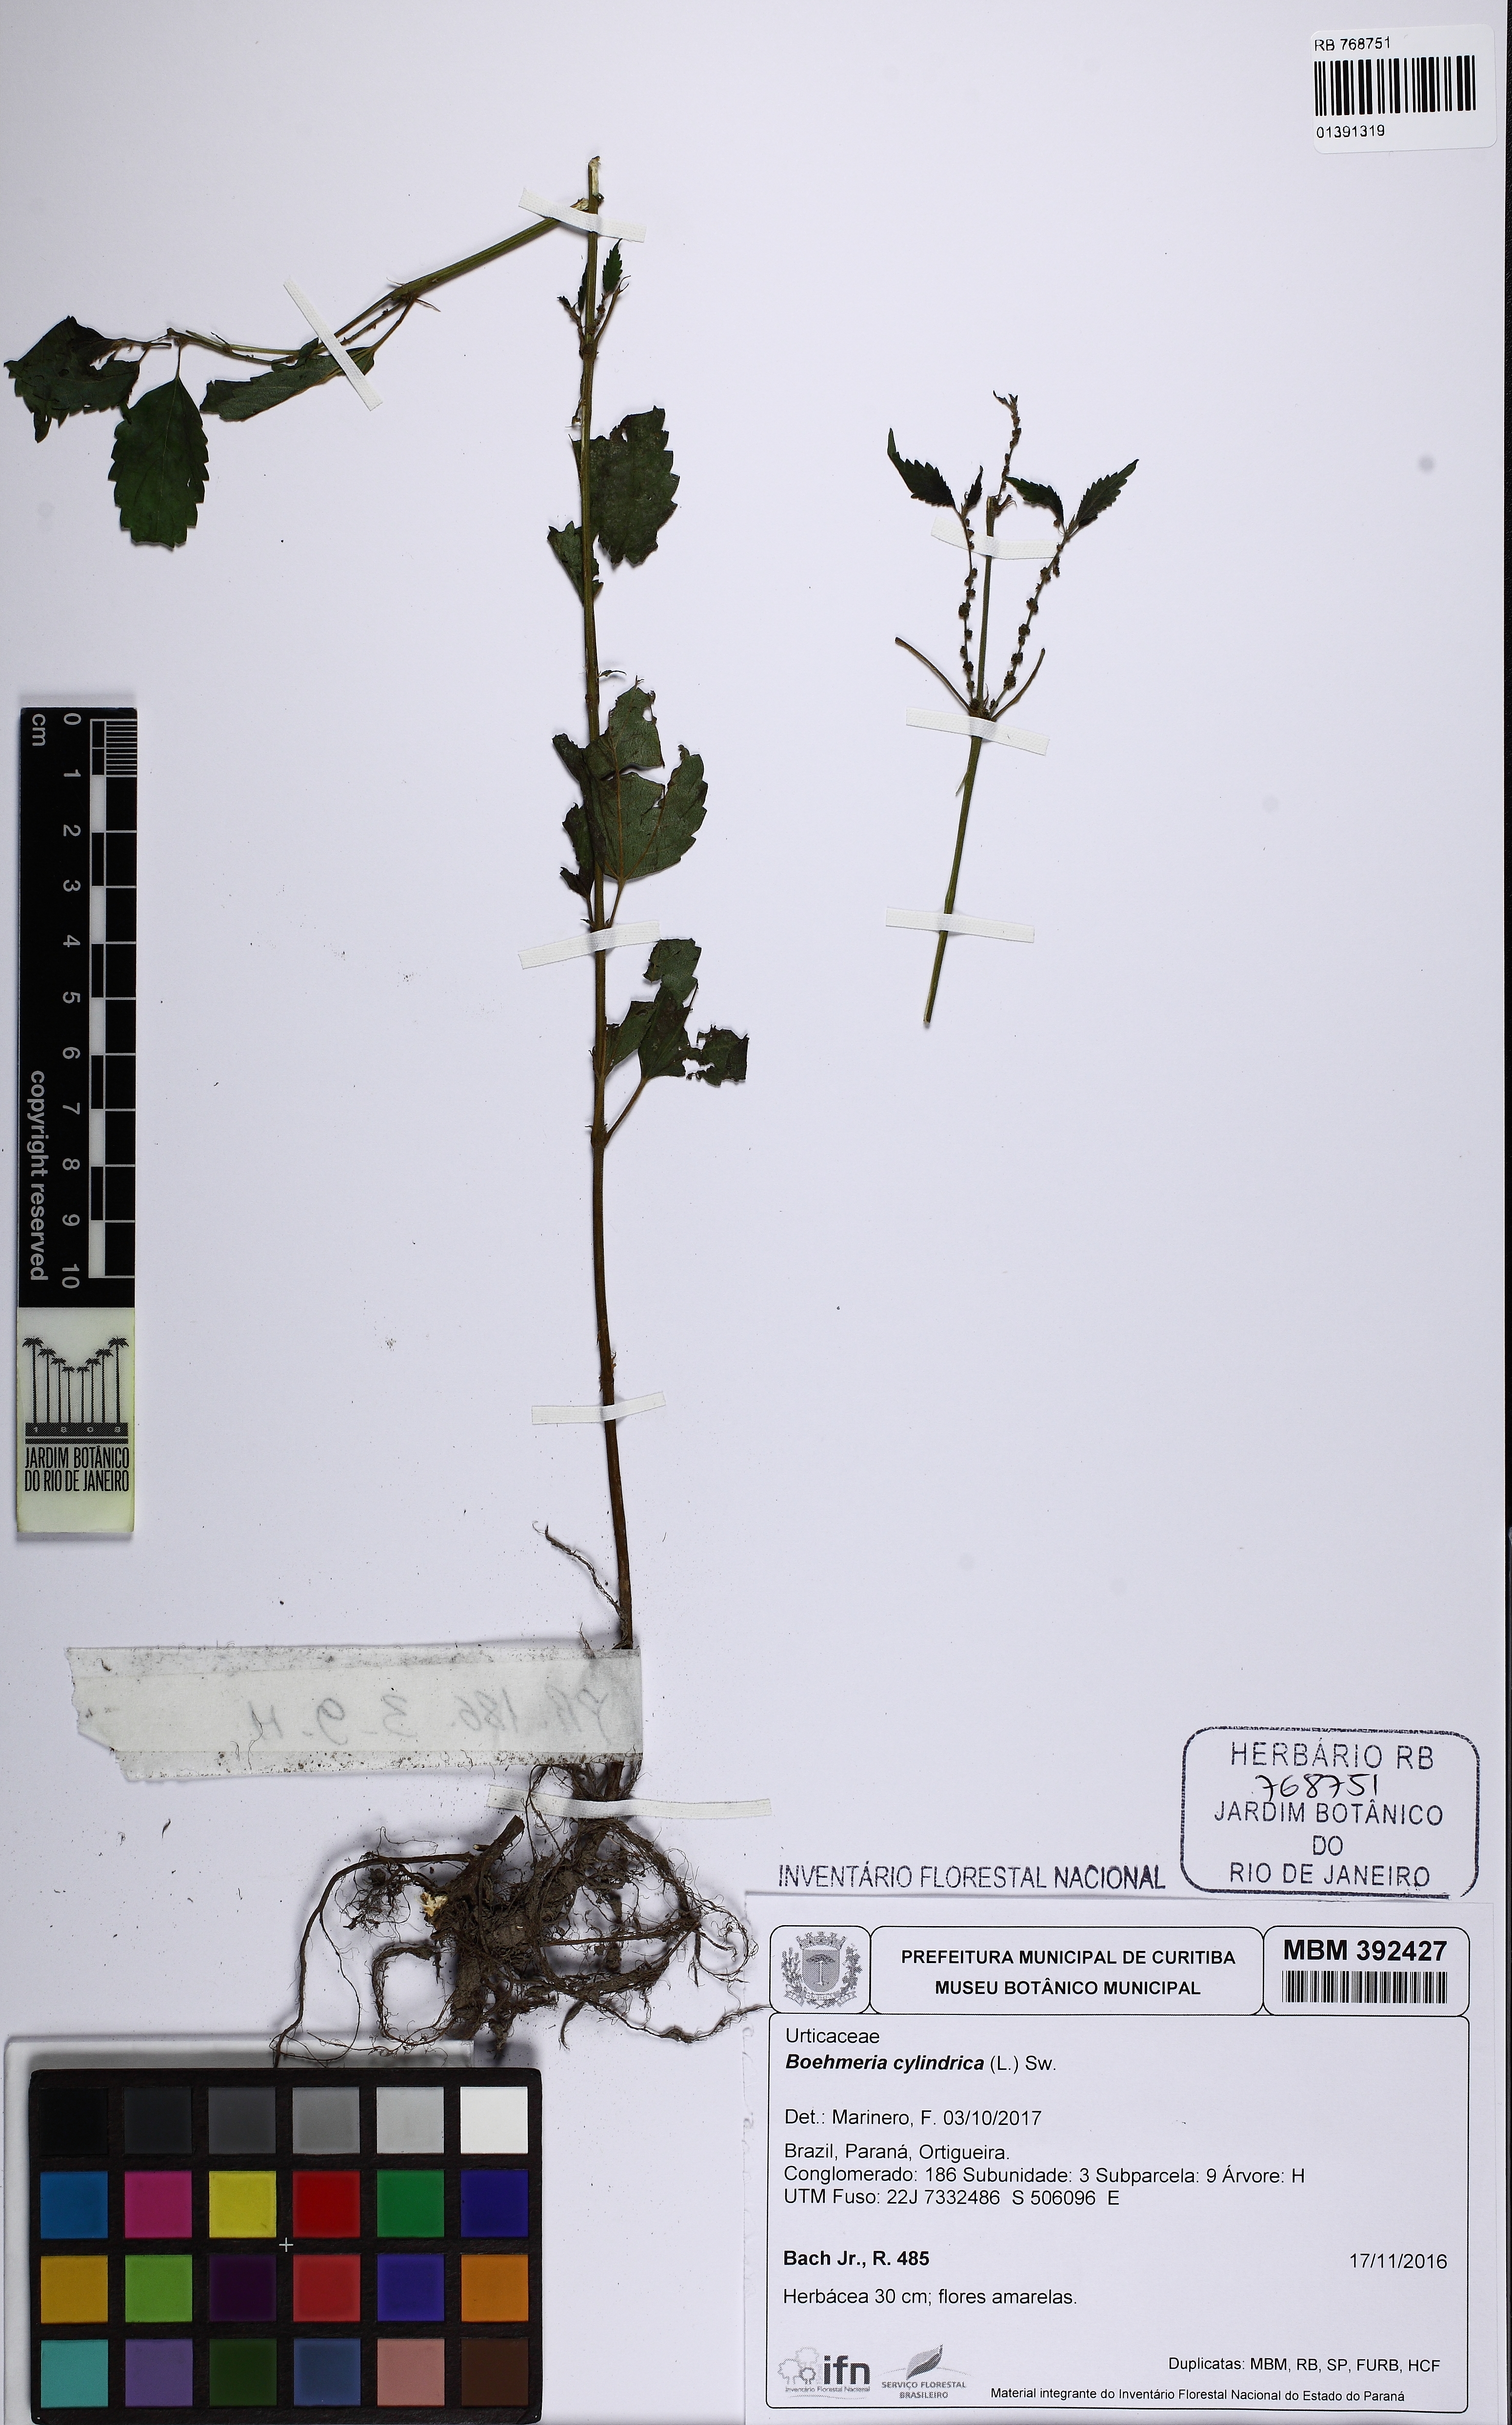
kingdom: Plantae
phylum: Tracheophyta
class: Magnoliopsida
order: Rosales
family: Urticaceae
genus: Boehmeria
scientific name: Boehmeria cylindrica
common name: Bog-hemp
